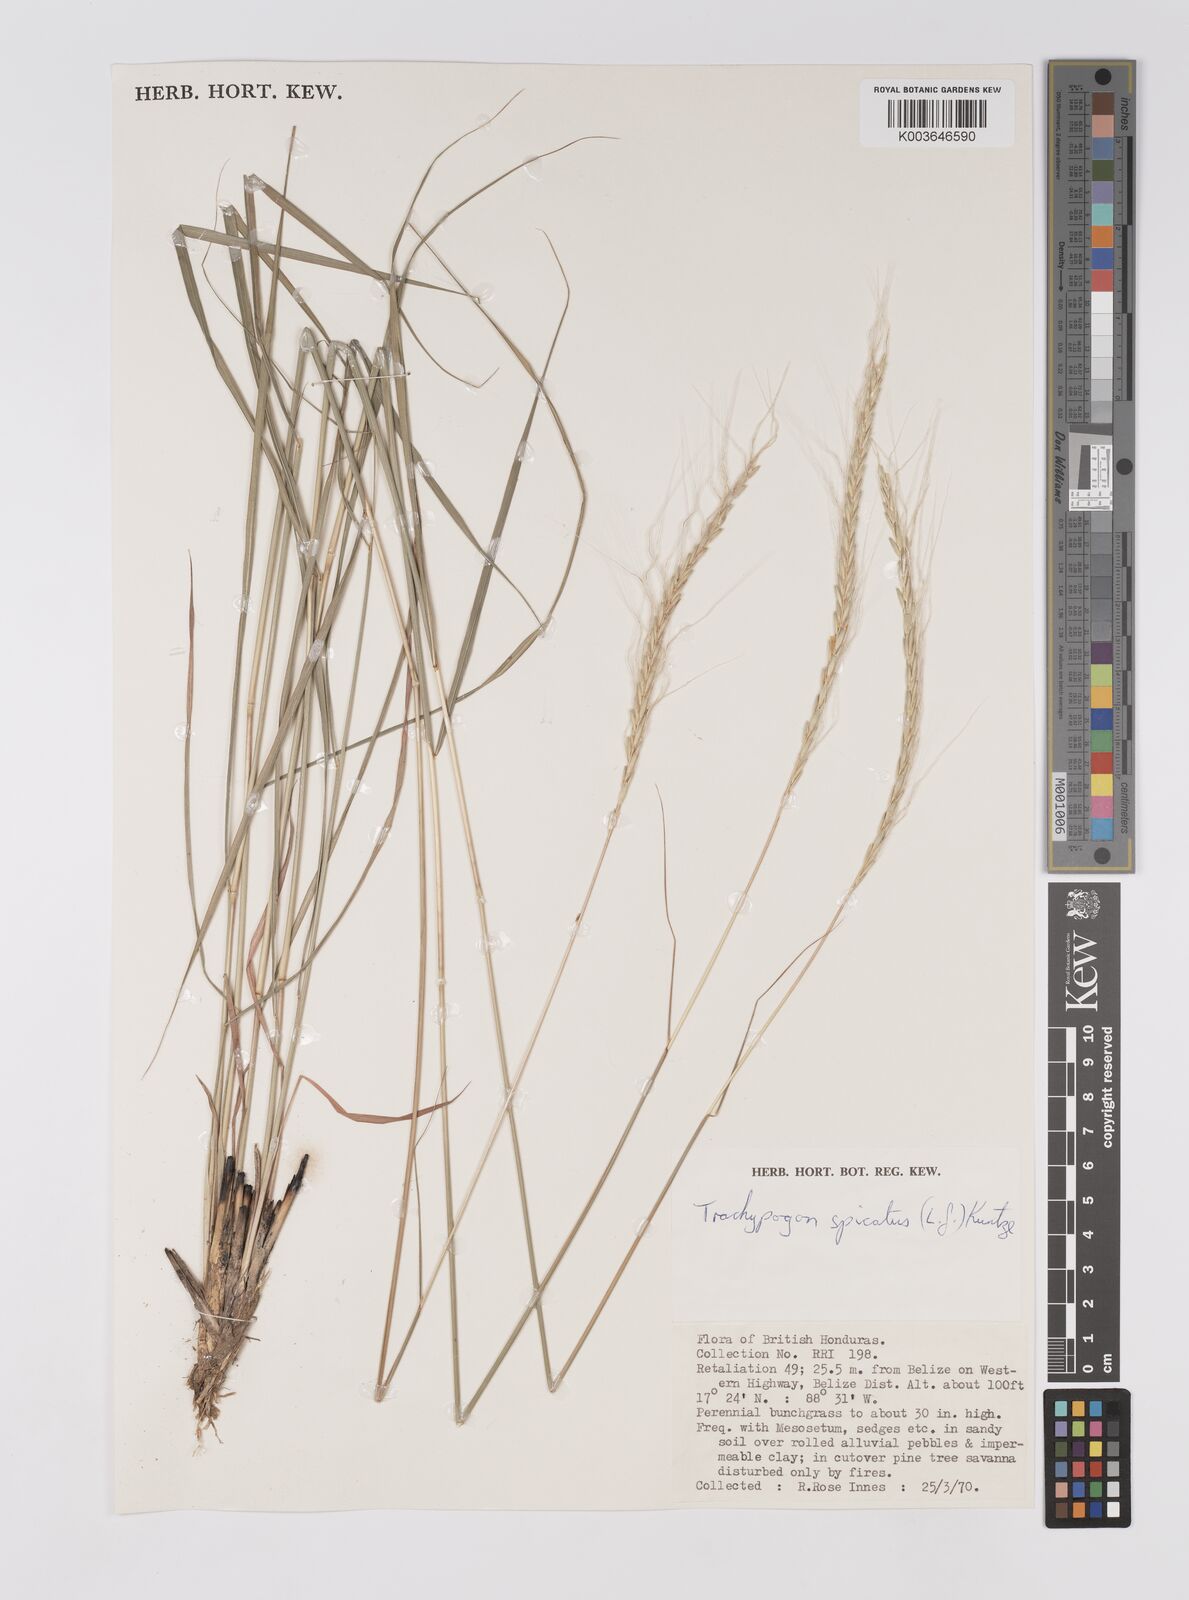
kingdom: Plantae
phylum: Tracheophyta
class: Liliopsida
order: Poales
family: Poaceae
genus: Trachypogon
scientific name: Trachypogon spicatus
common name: Crinkle-awn
